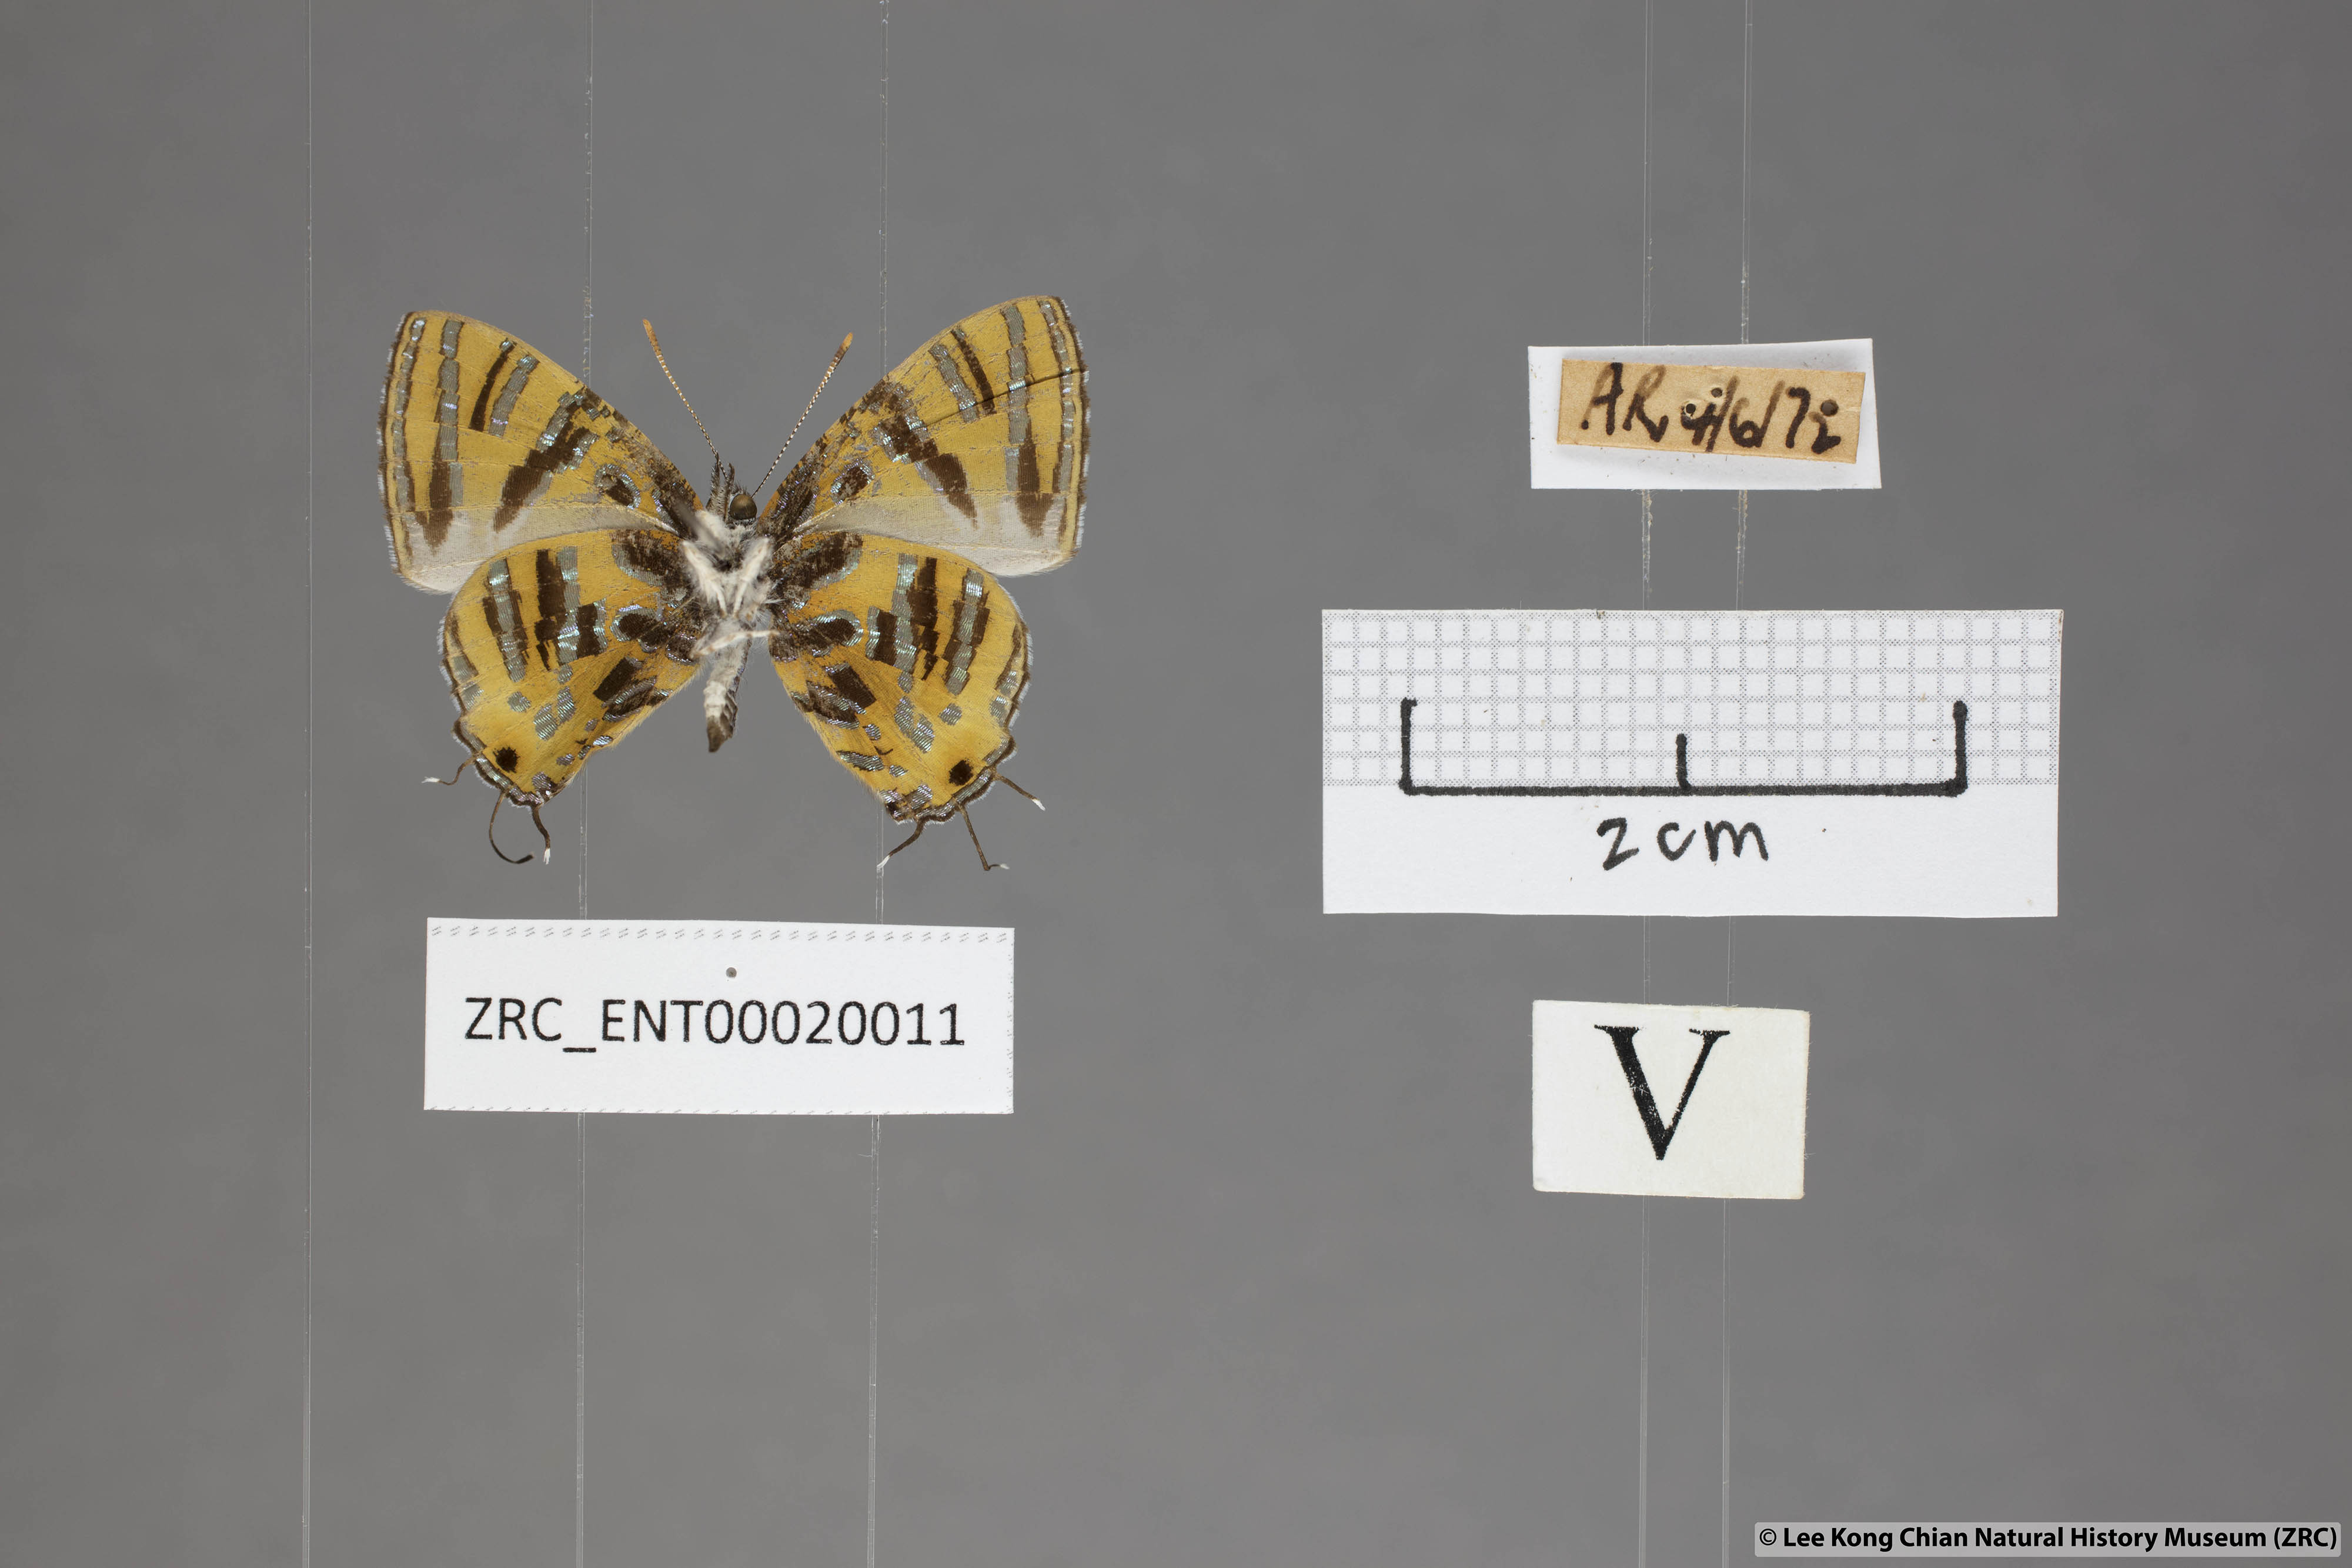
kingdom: Animalia
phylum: Arthropoda
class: Insecta
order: Lepidoptera
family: Lycaenidae
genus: Catapaecilma
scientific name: Catapaecilma subochrea
